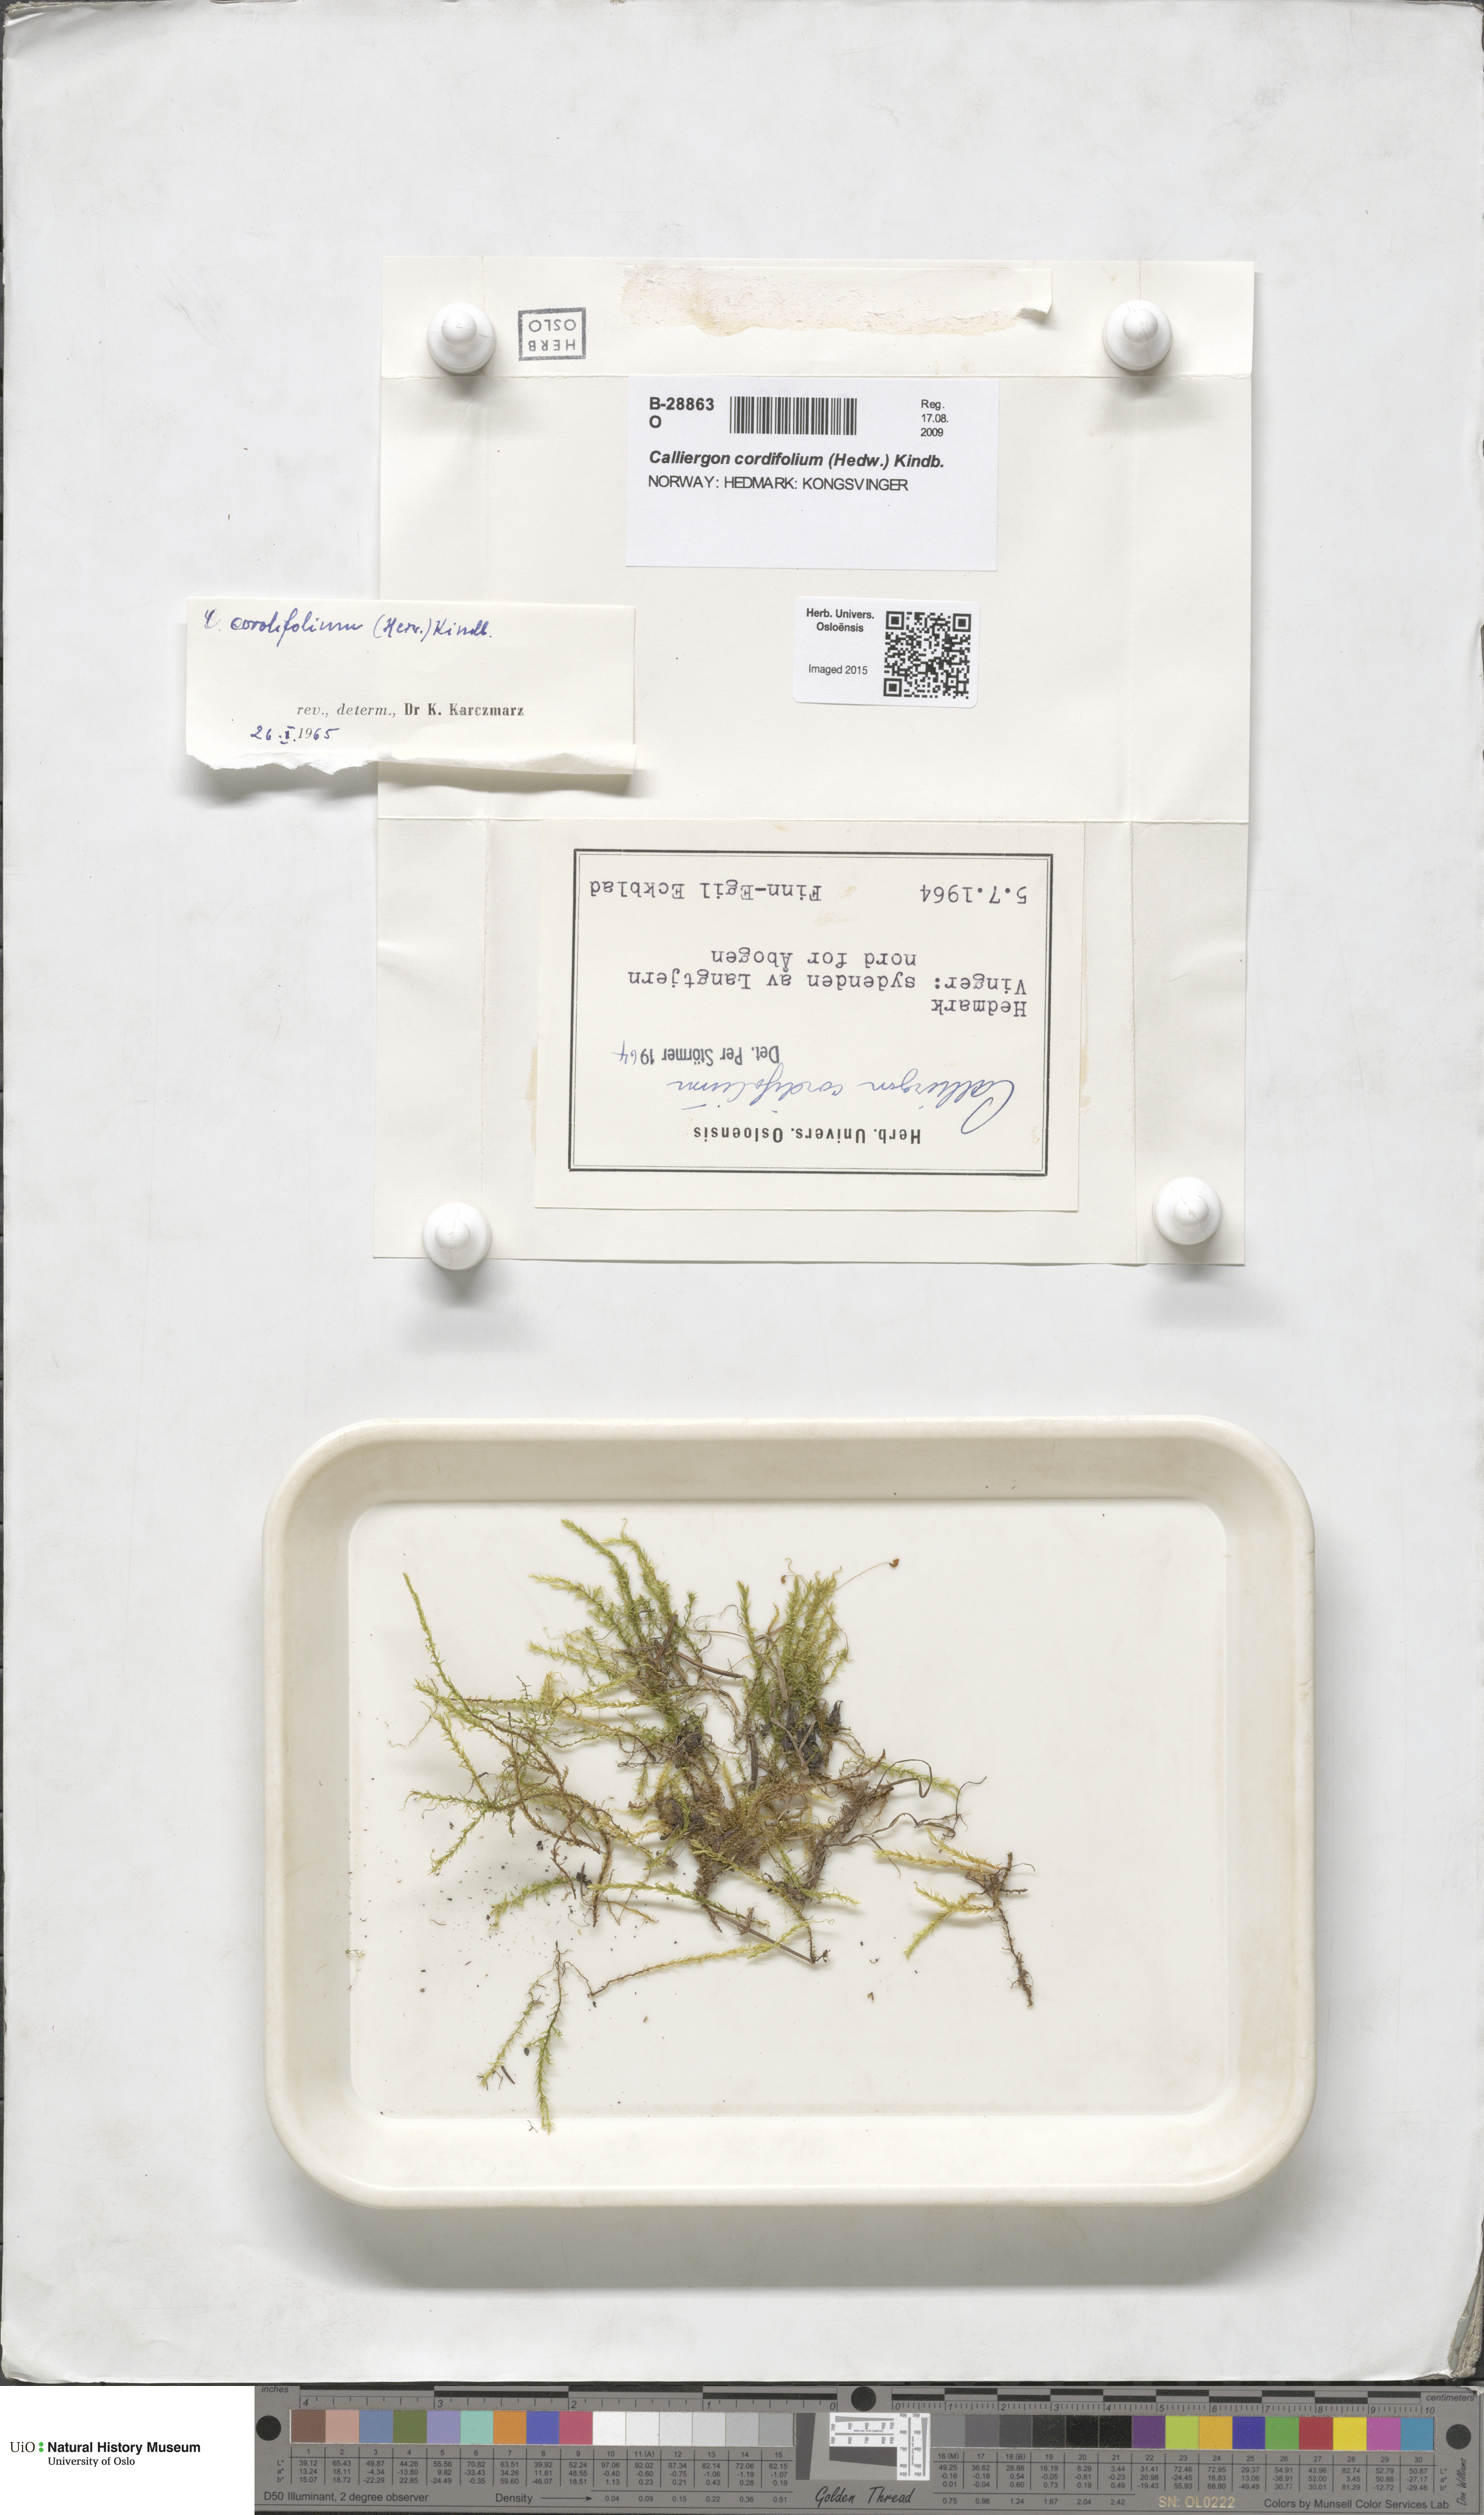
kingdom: Plantae
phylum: Bryophyta
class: Bryopsida
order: Hypnales
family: Calliergonaceae
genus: Calliergon
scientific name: Calliergon cordifolium
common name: Heart-leaved spear moss
